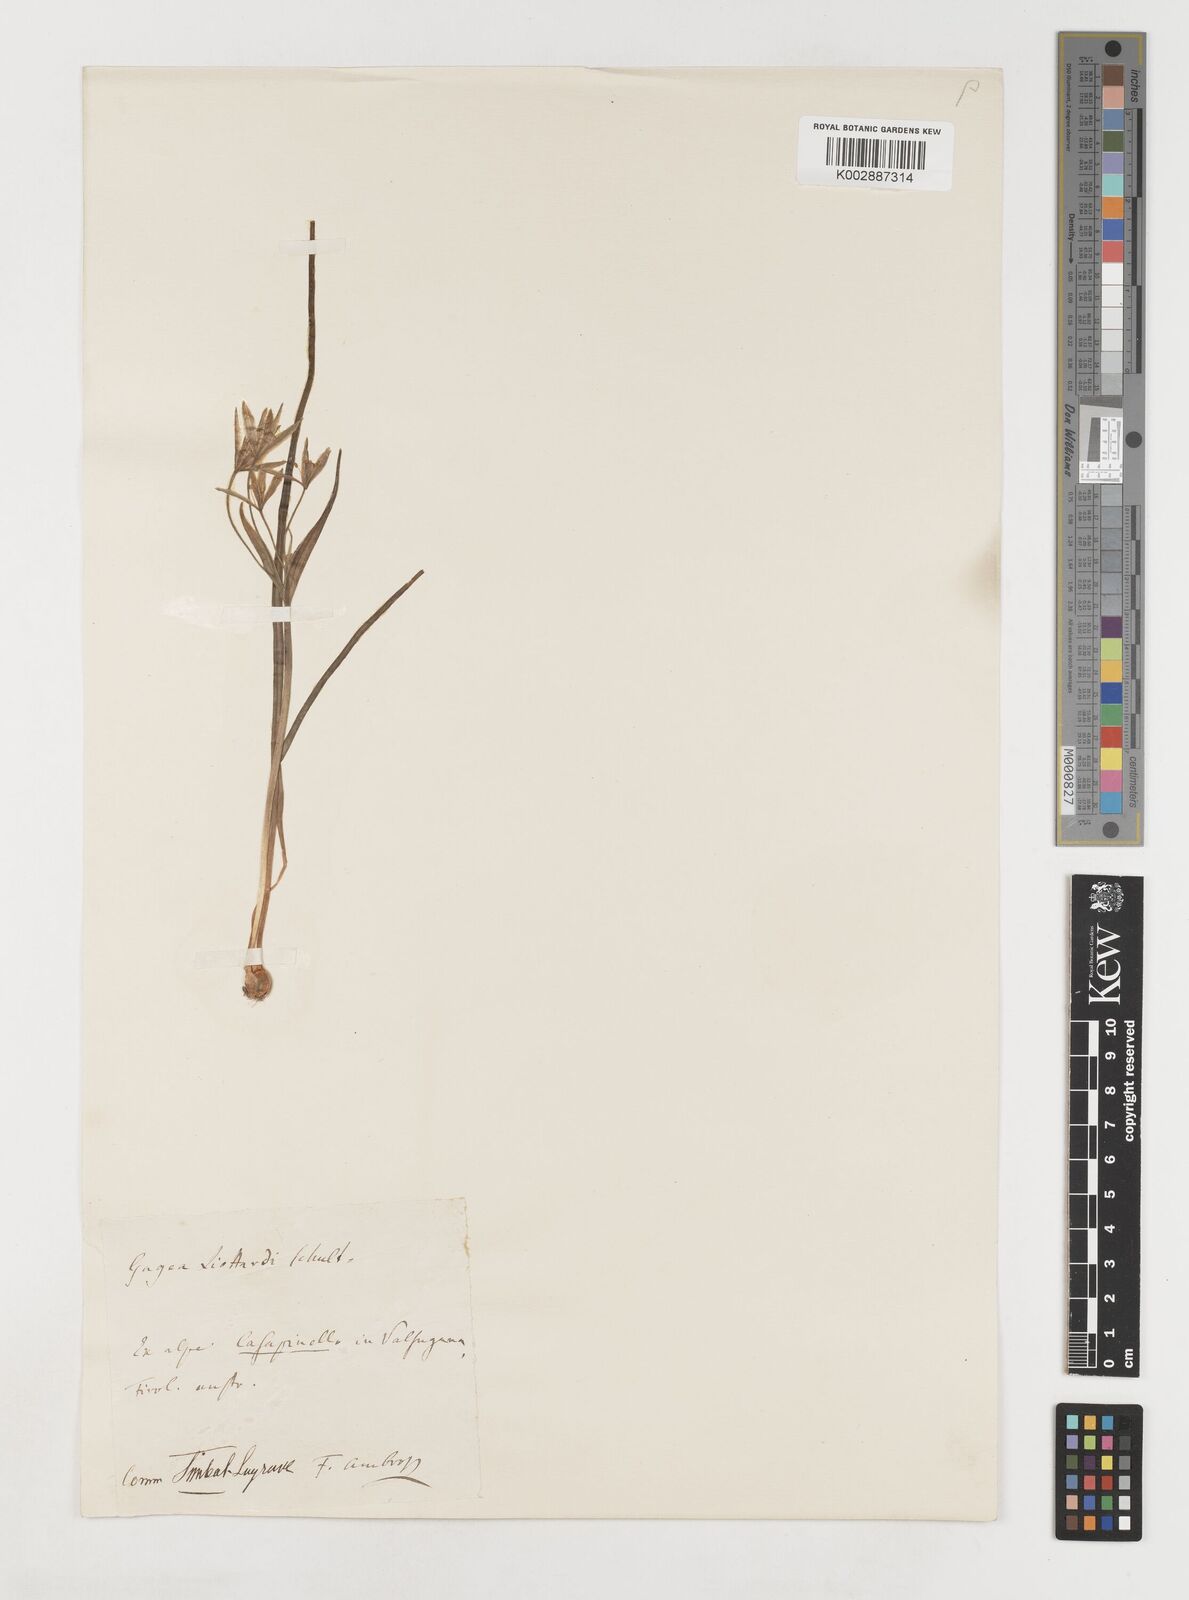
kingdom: Plantae
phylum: Tracheophyta
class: Liliopsida
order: Liliales
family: Liliaceae
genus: Gagea
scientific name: Gagea bohemica
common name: Early star-of-bethlehem
